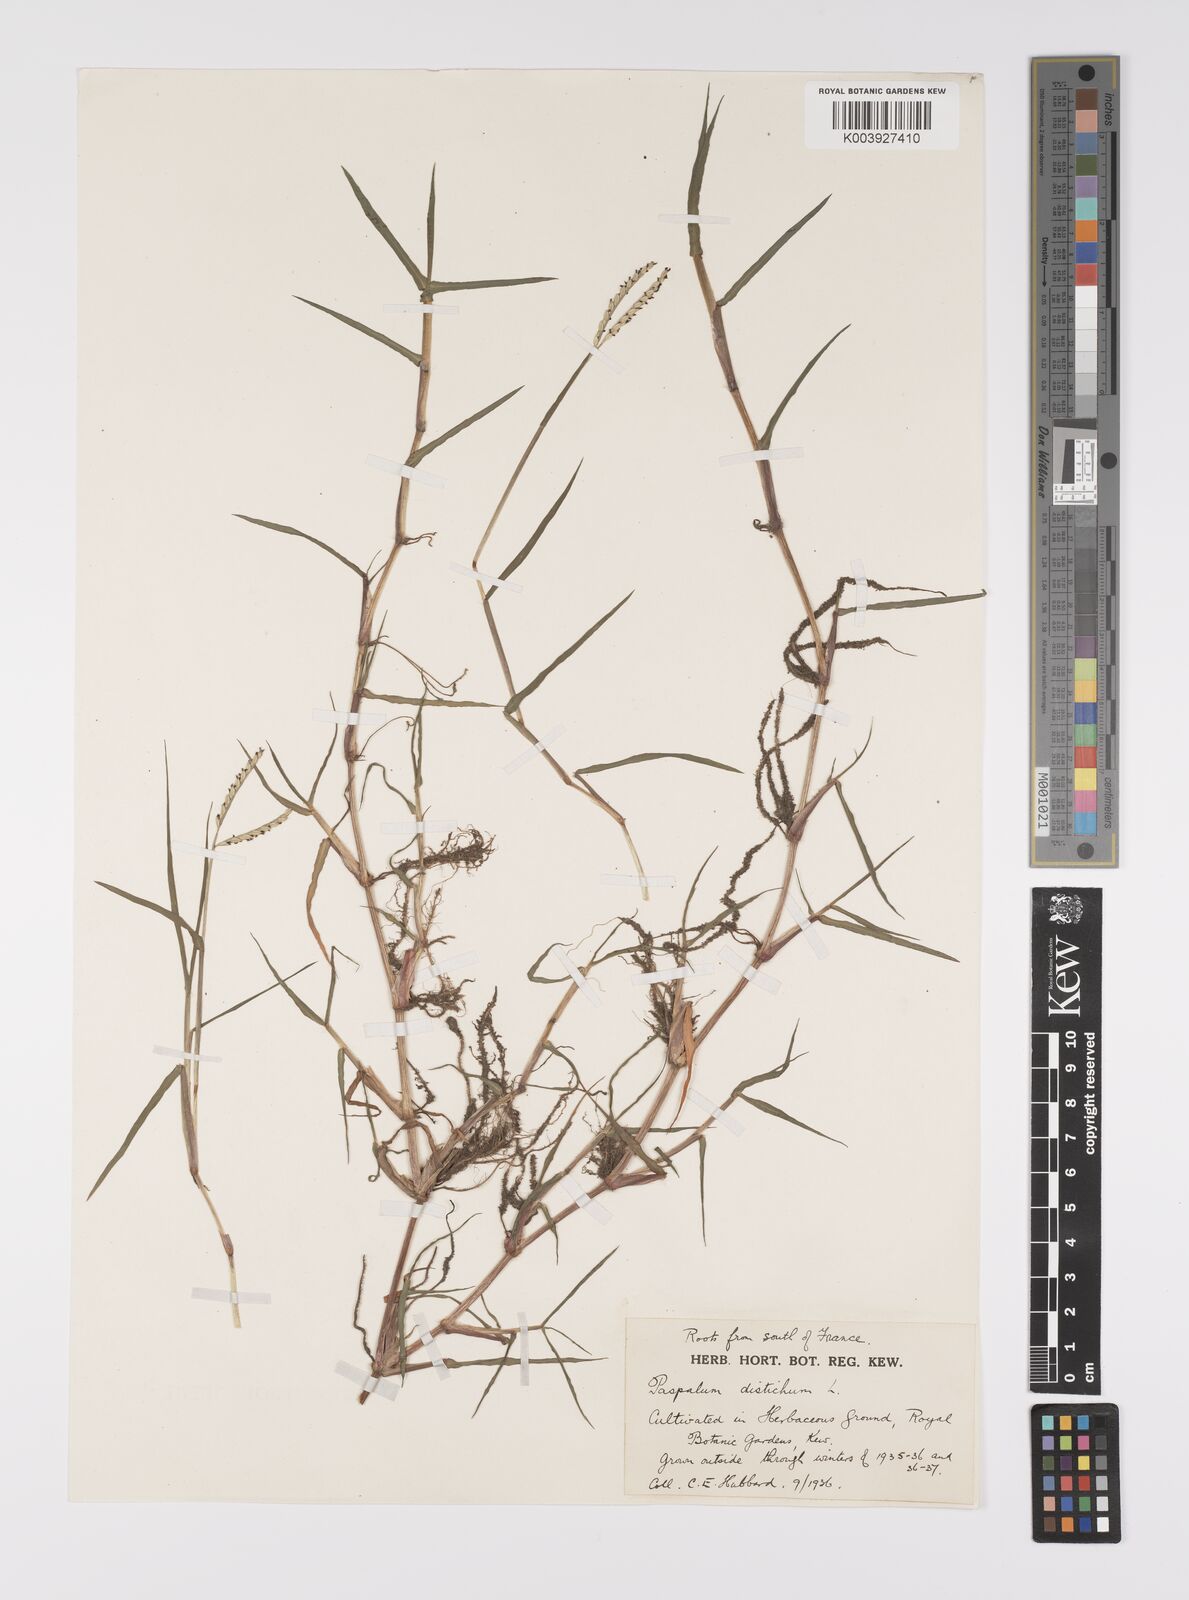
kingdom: Plantae
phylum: Tracheophyta
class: Liliopsida
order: Poales
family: Poaceae
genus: Paspalum
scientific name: Paspalum distichum
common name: Knotgrass
